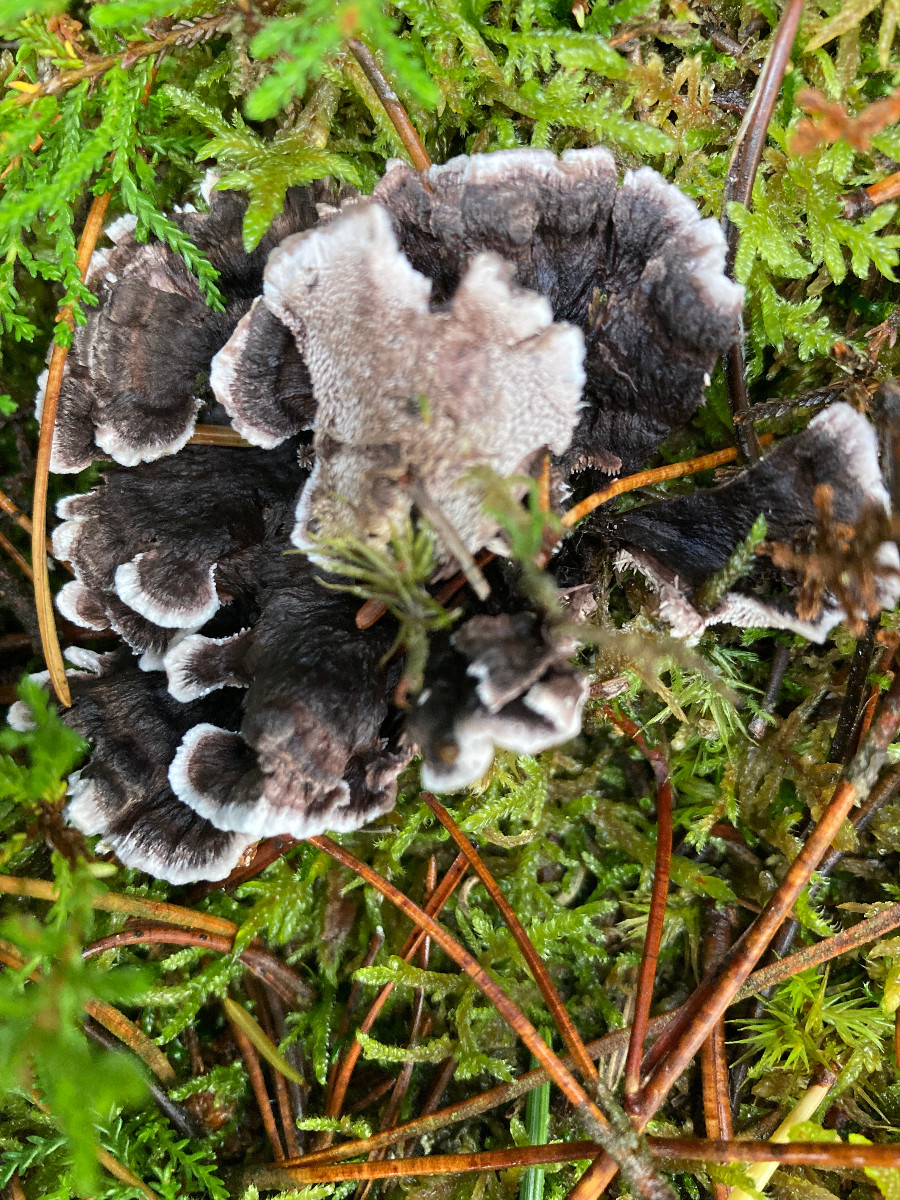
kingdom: Fungi
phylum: Basidiomycota
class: Agaricomycetes
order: Thelephorales
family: Thelephoraceae
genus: Phellodon
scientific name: Phellodon tomentosus
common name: vellugtende duftpigsvamp
